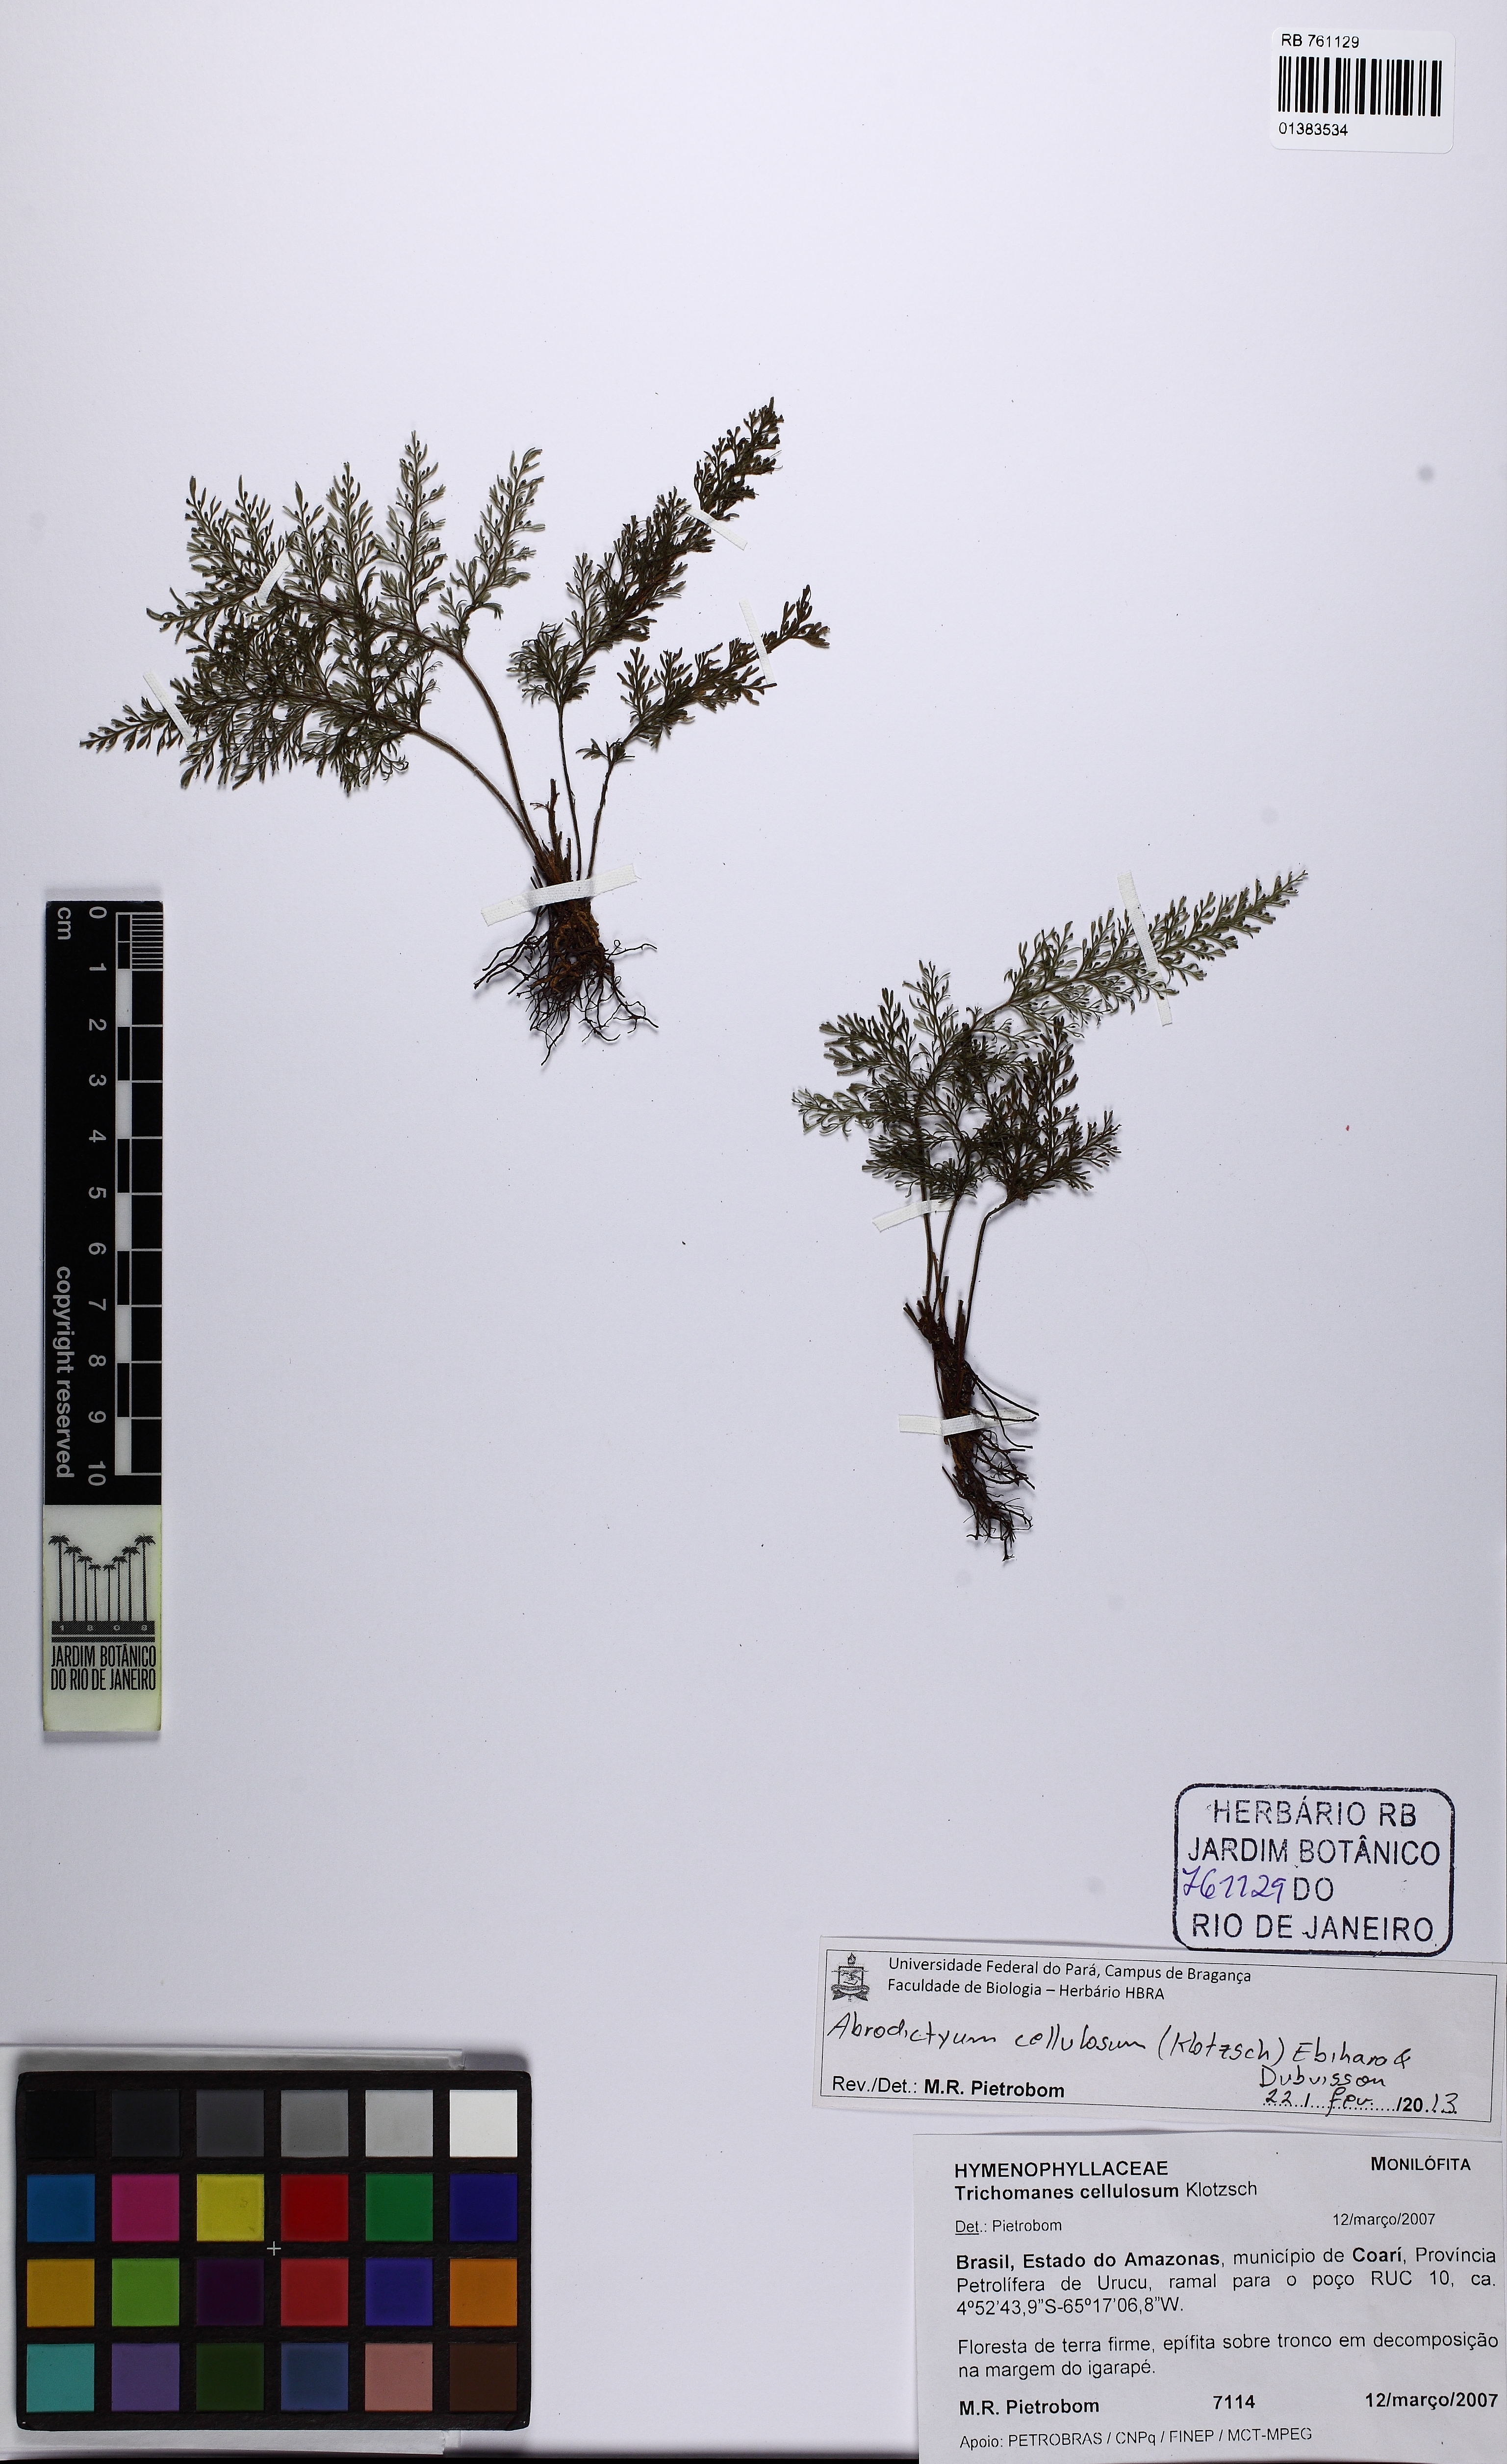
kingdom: Plantae
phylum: Tracheophyta
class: Polypodiopsida
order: Hymenophyllales
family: Hymenophyllaceae
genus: Abrodictyum
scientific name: Abrodictyum cellulosum
